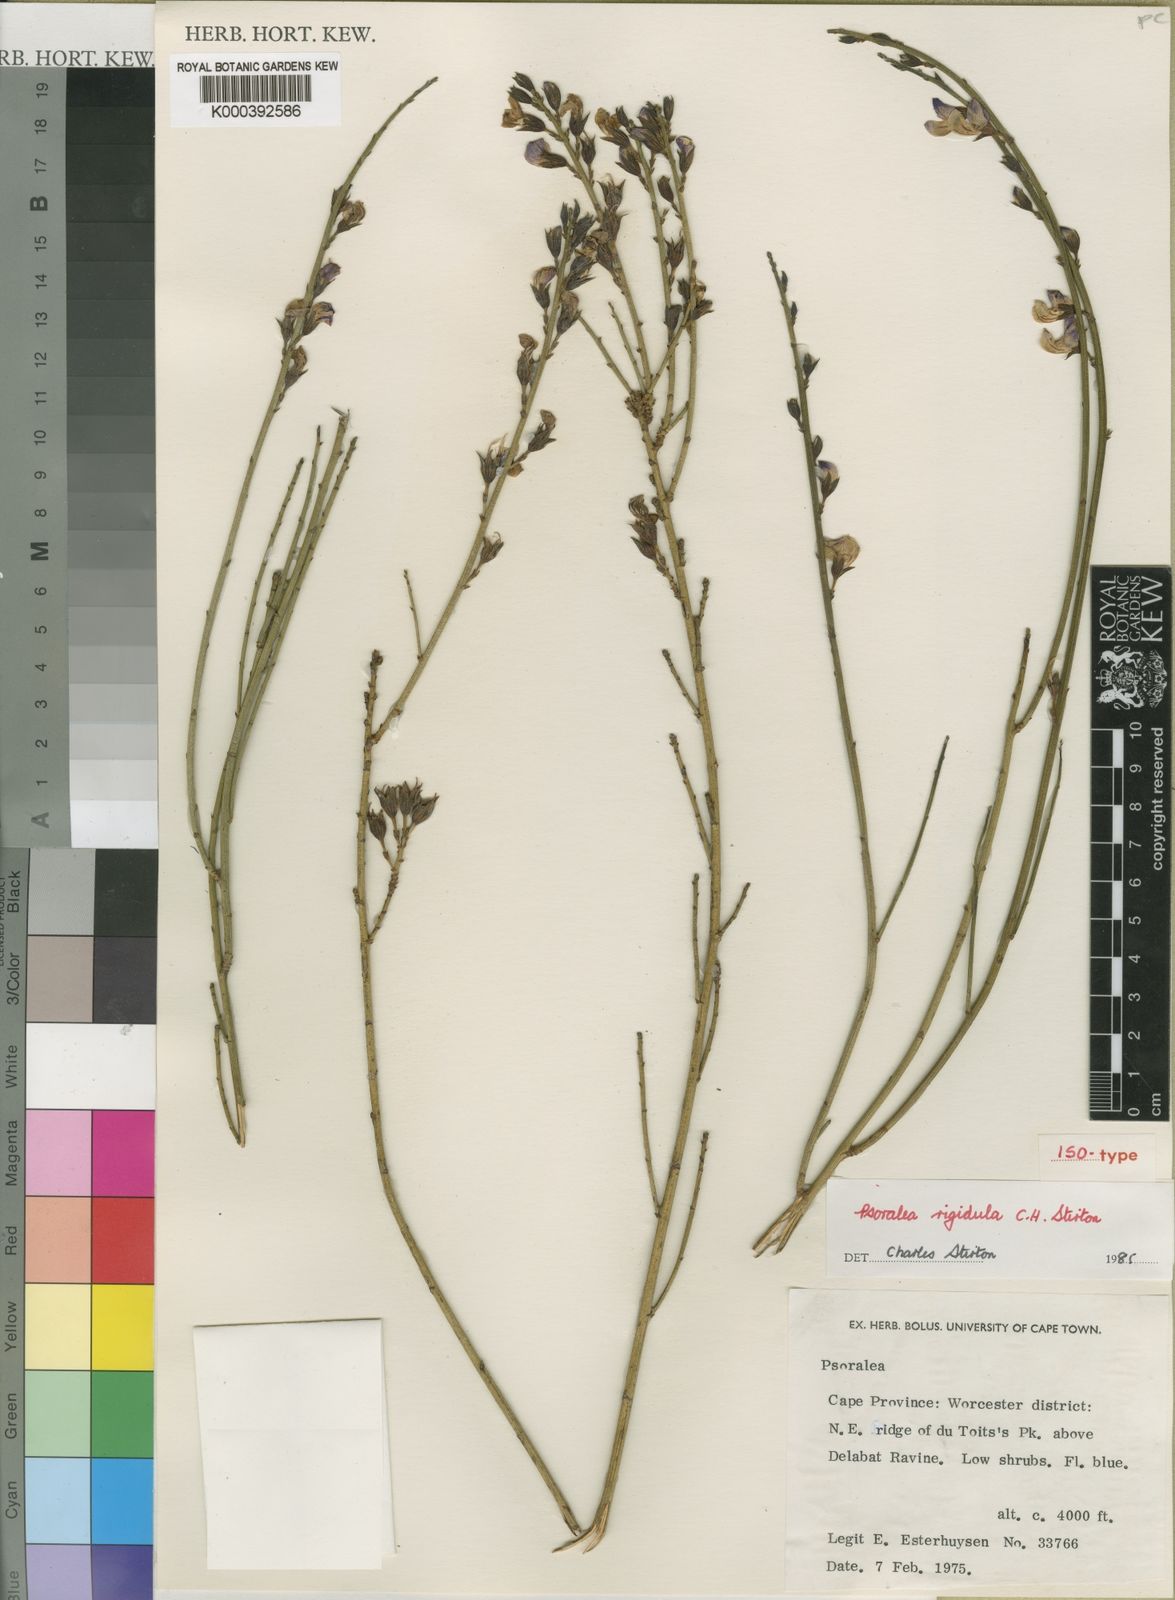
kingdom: Plantae
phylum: Tracheophyta
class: Magnoliopsida
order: Fabales
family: Fabaceae
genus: Psoralea
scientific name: Psoralea rigidula
